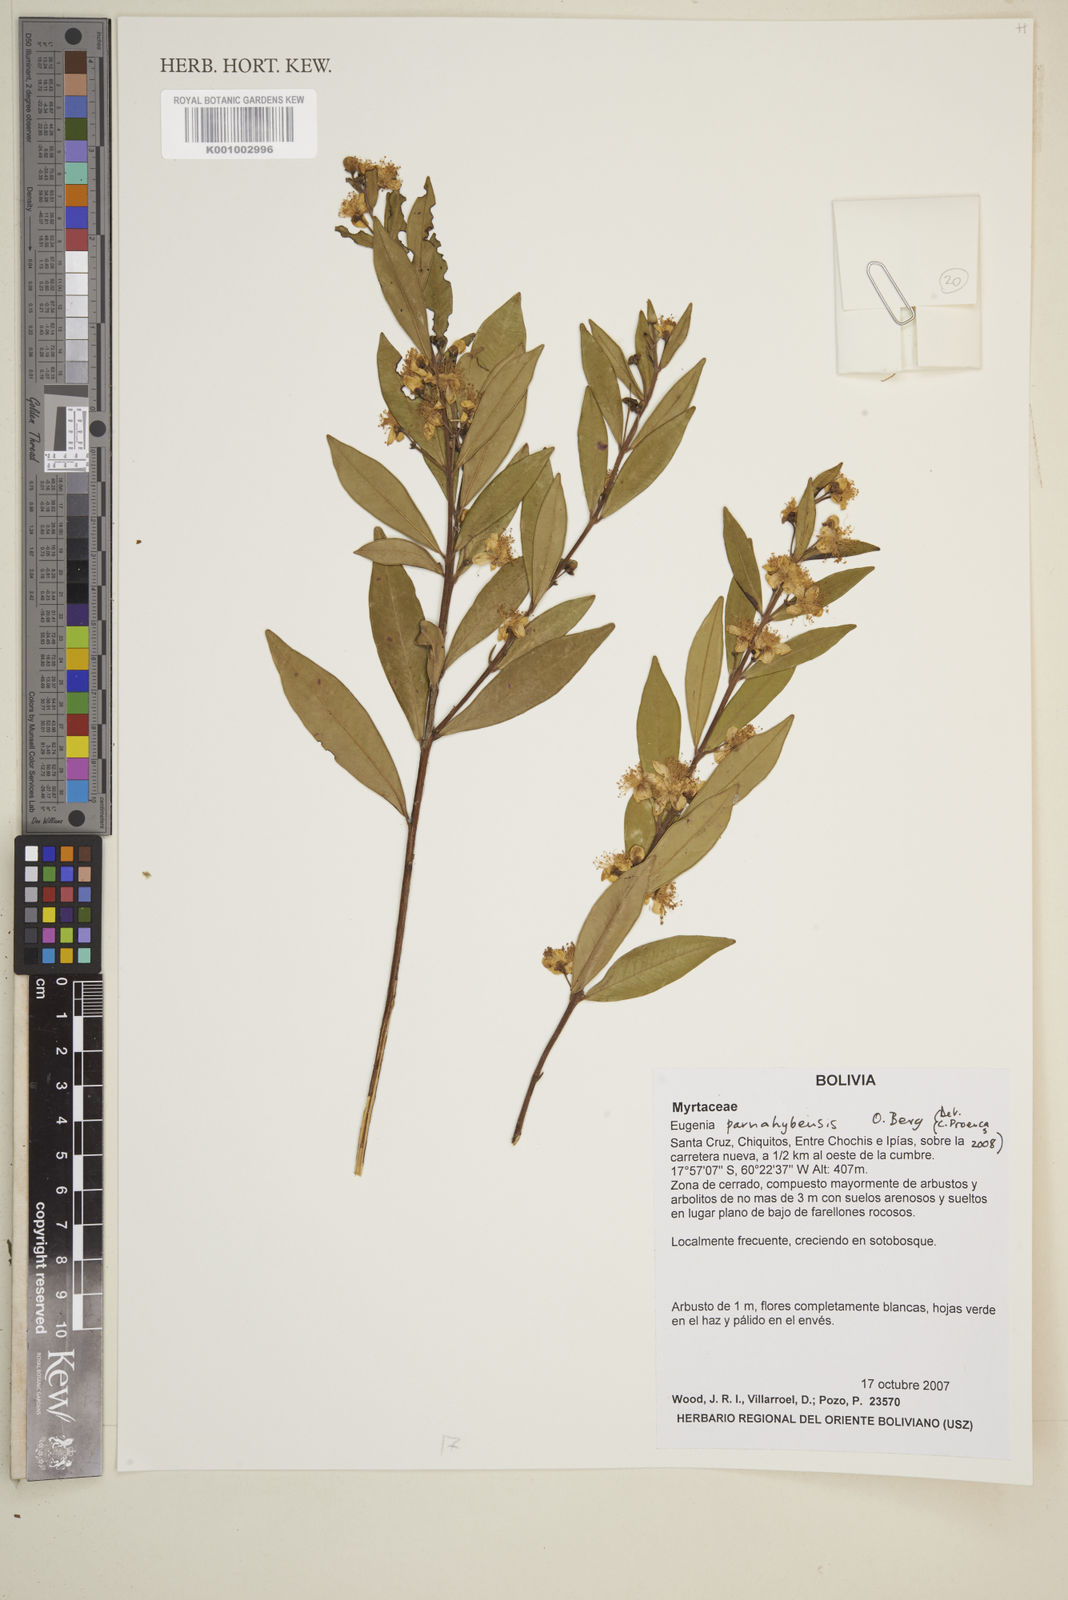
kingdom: Plantae
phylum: Tracheophyta
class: Magnoliopsida
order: Myrtales
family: Myrtaceae
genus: Eugenia
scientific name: Eugenia paranahybensis
